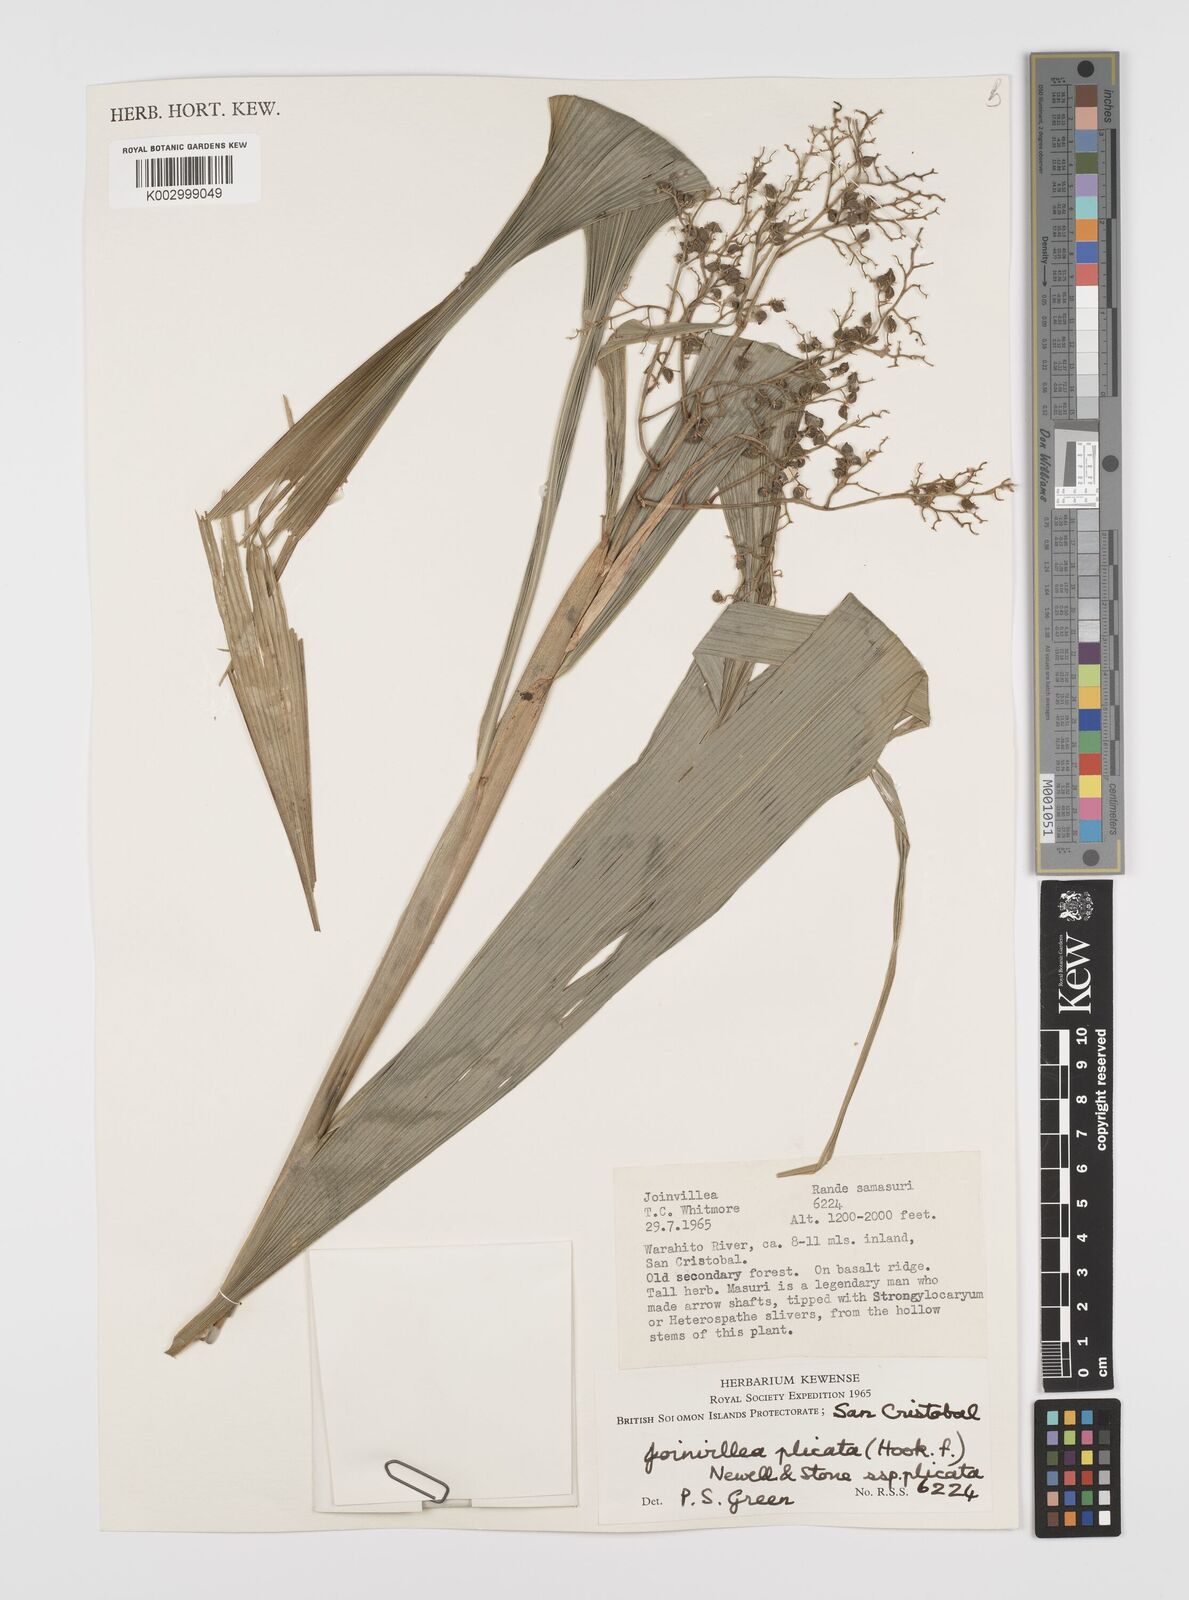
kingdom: Plantae
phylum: Tracheophyta
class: Liliopsida
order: Poales
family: Joinvilleaceae
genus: Joinvillea
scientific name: Joinvillea plicata
